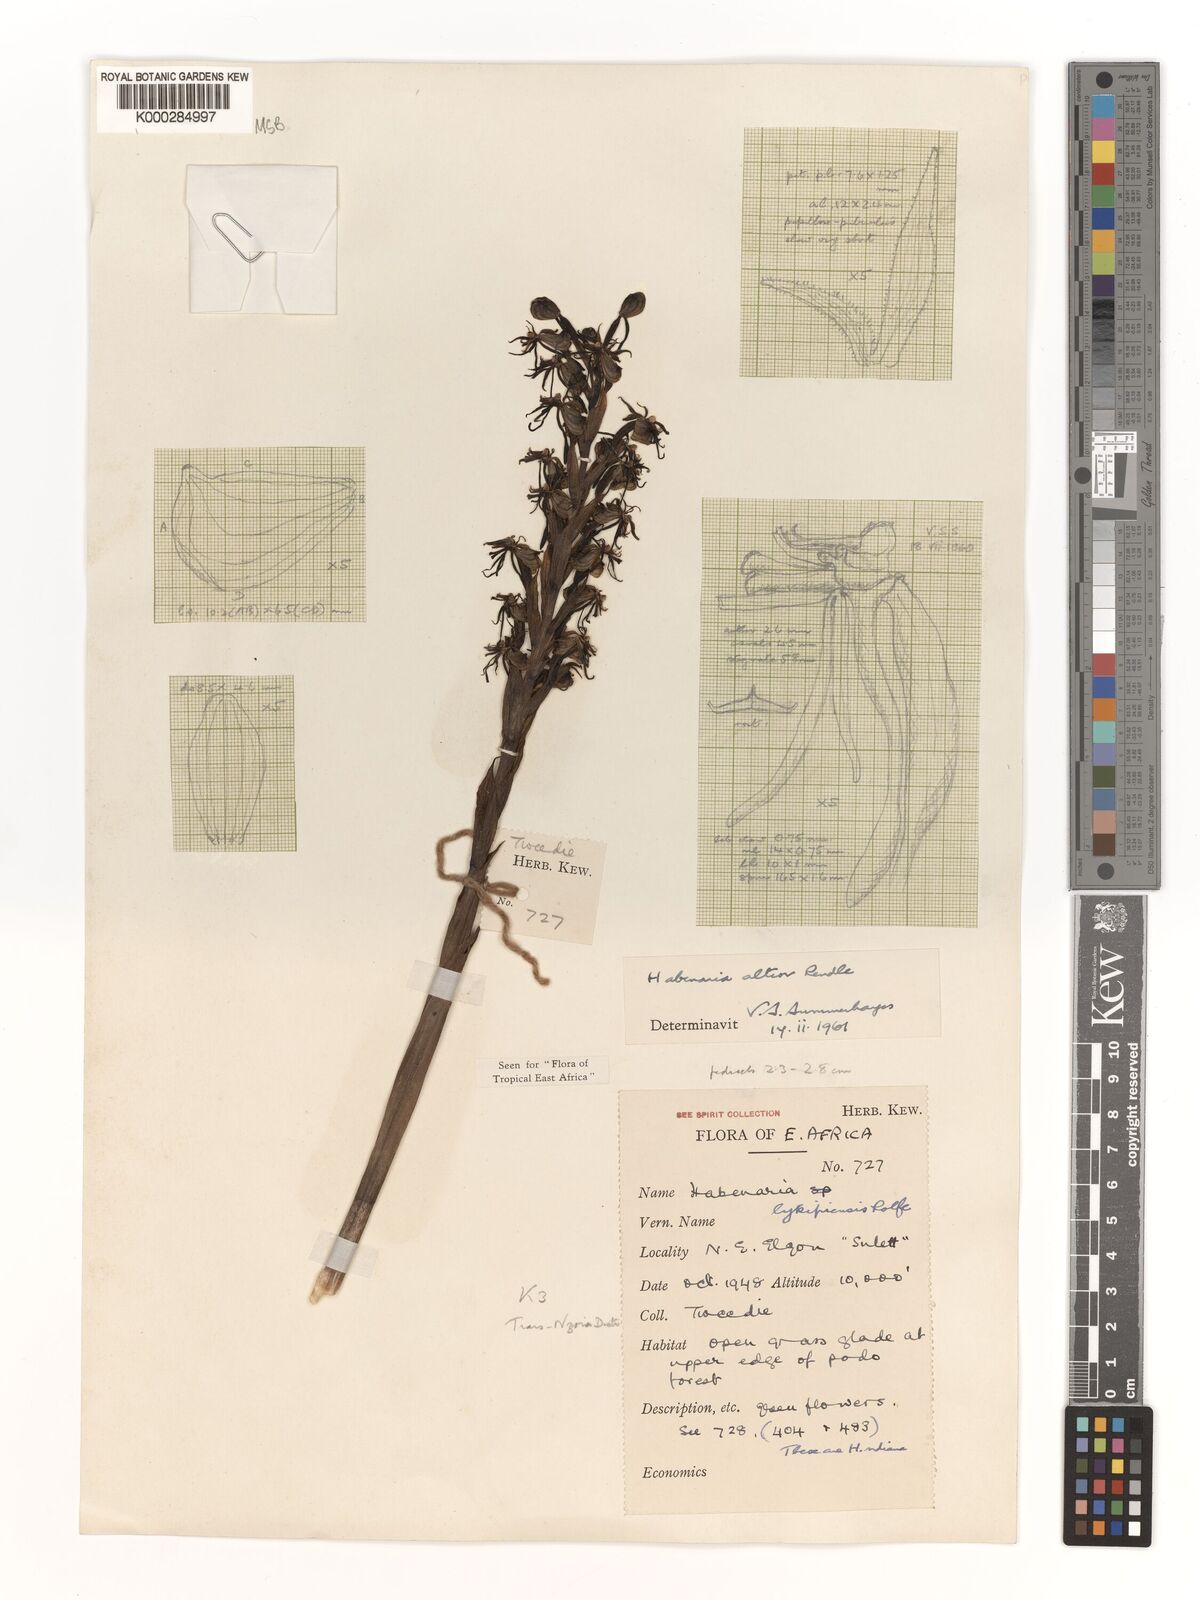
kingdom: Plantae
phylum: Tracheophyta
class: Liliopsida
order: Asparagales
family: Orchidaceae
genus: Habenaria
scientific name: Habenaria altior
